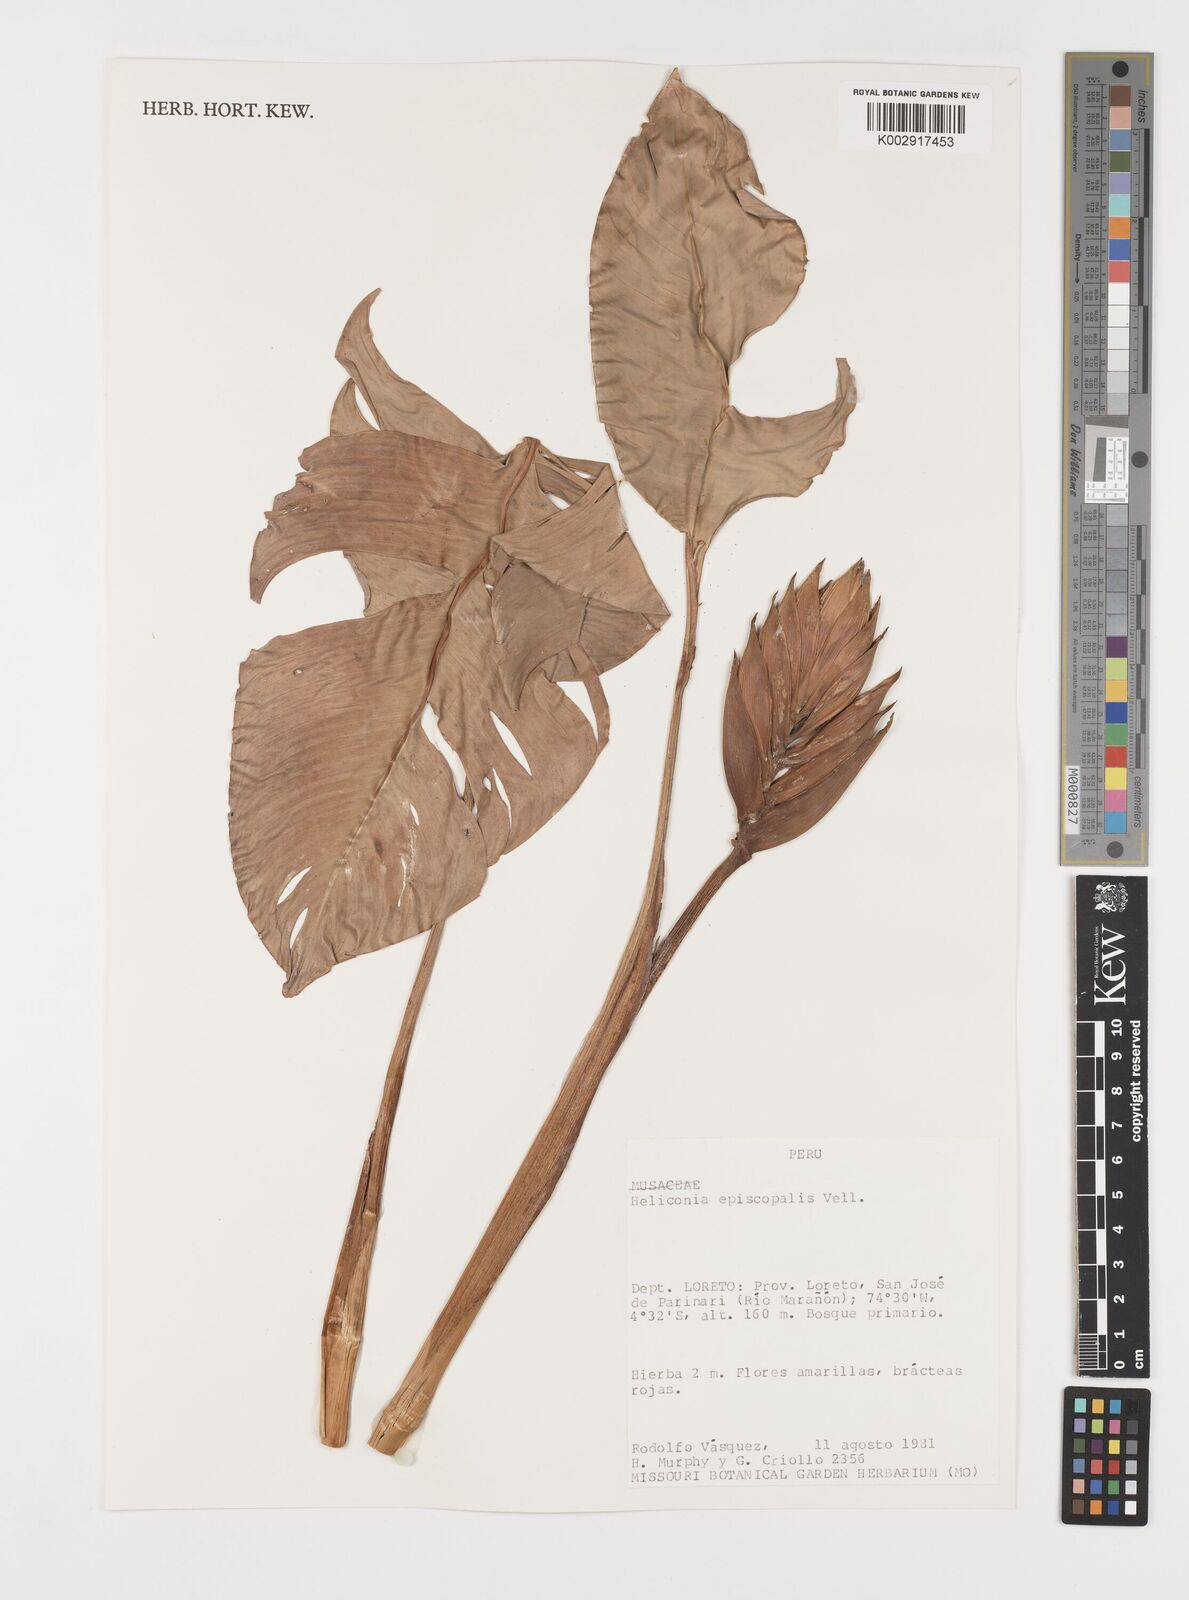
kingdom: Plantae
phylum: Tracheophyta
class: Liliopsida
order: Zingiberales
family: Heliconiaceae
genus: Heliconia
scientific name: Heliconia episcopalis
